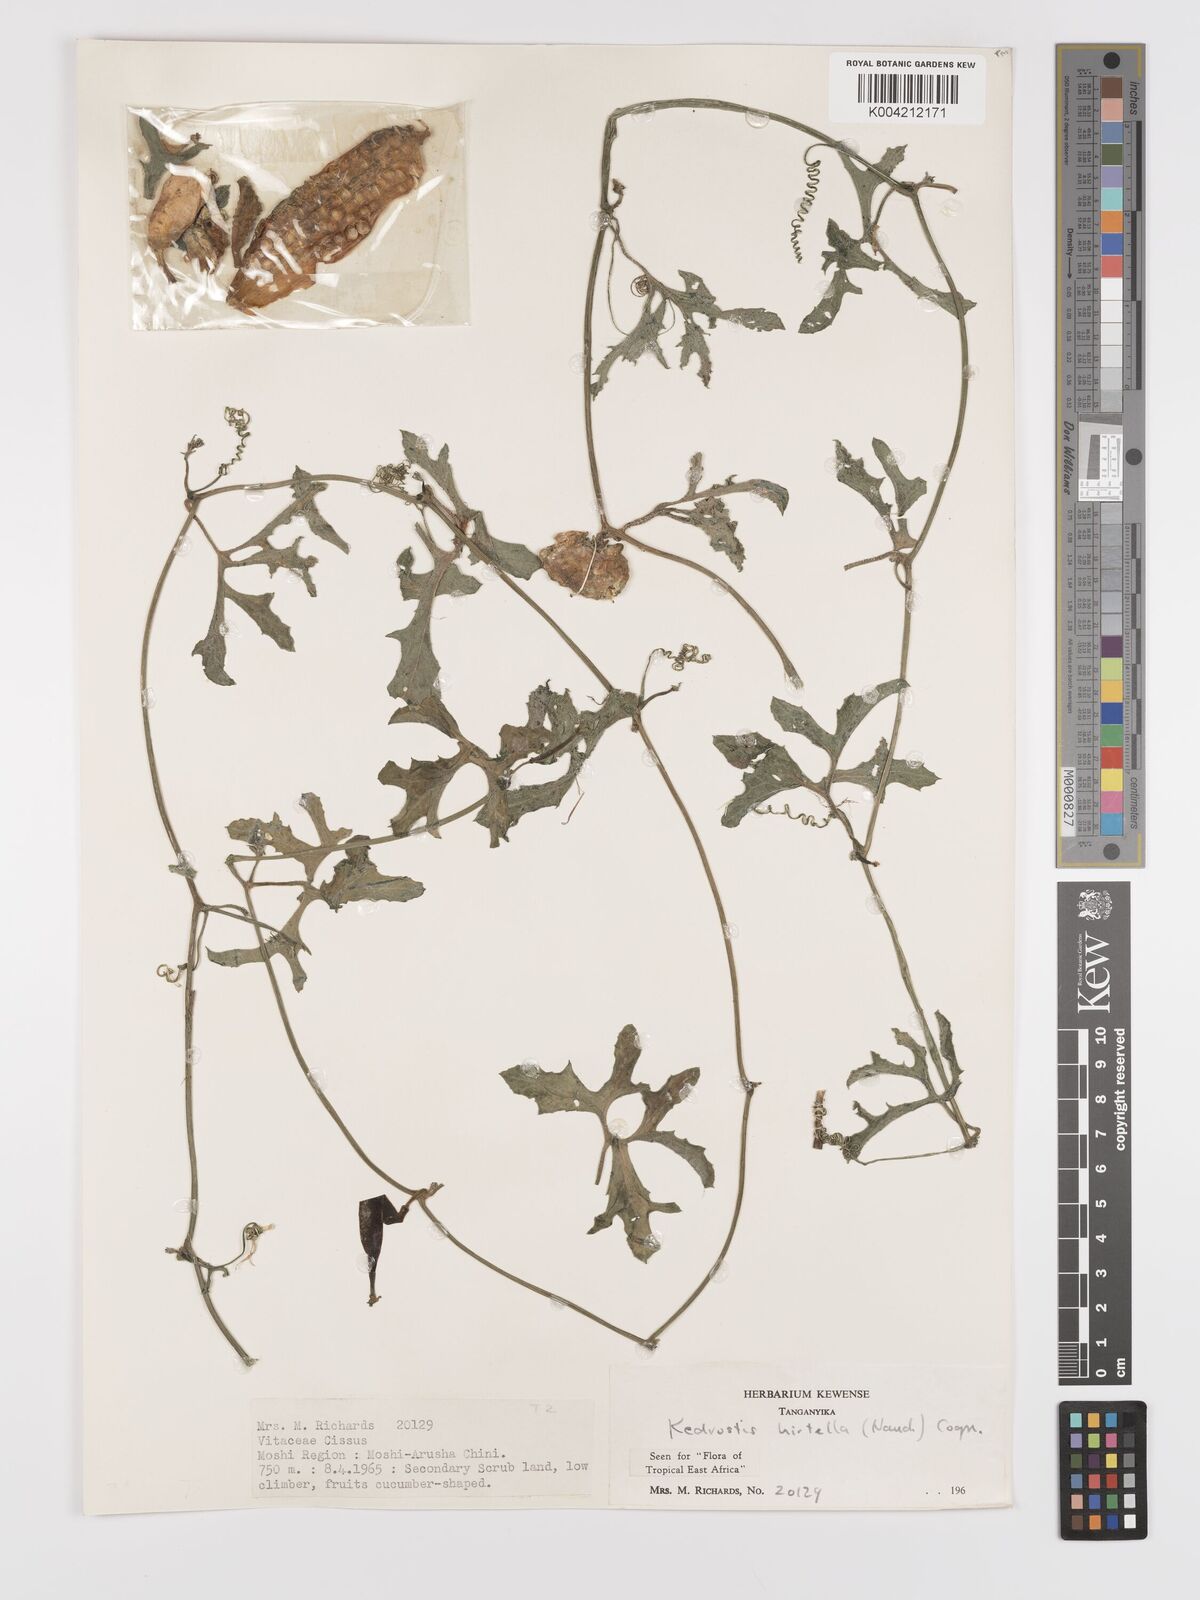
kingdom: Plantae
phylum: Tracheophyta
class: Magnoliopsida
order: Cucurbitales
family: Cucurbitaceae
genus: Kedrostis
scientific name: Kedrostis leloja
